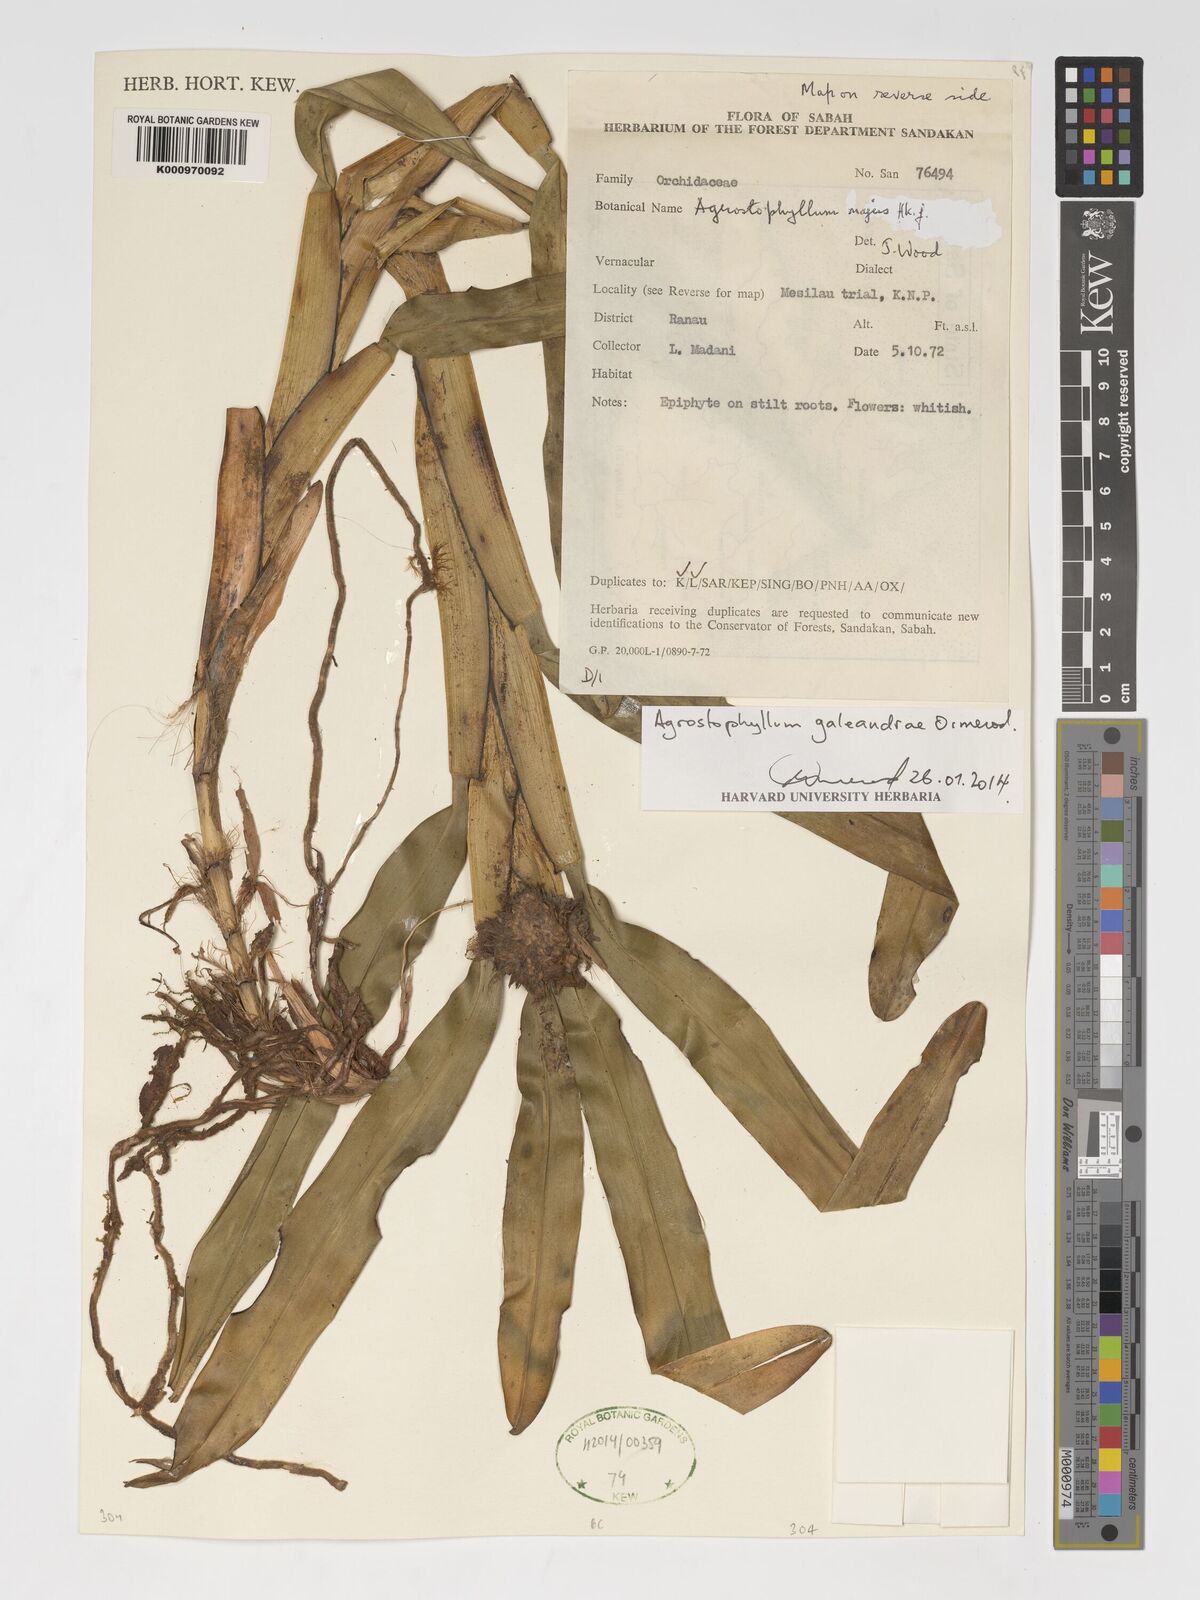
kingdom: Plantae
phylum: Tracheophyta
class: Liliopsida
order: Asparagales
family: Orchidaceae
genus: Agrostophyllum
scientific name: Agrostophyllum galeandrae
